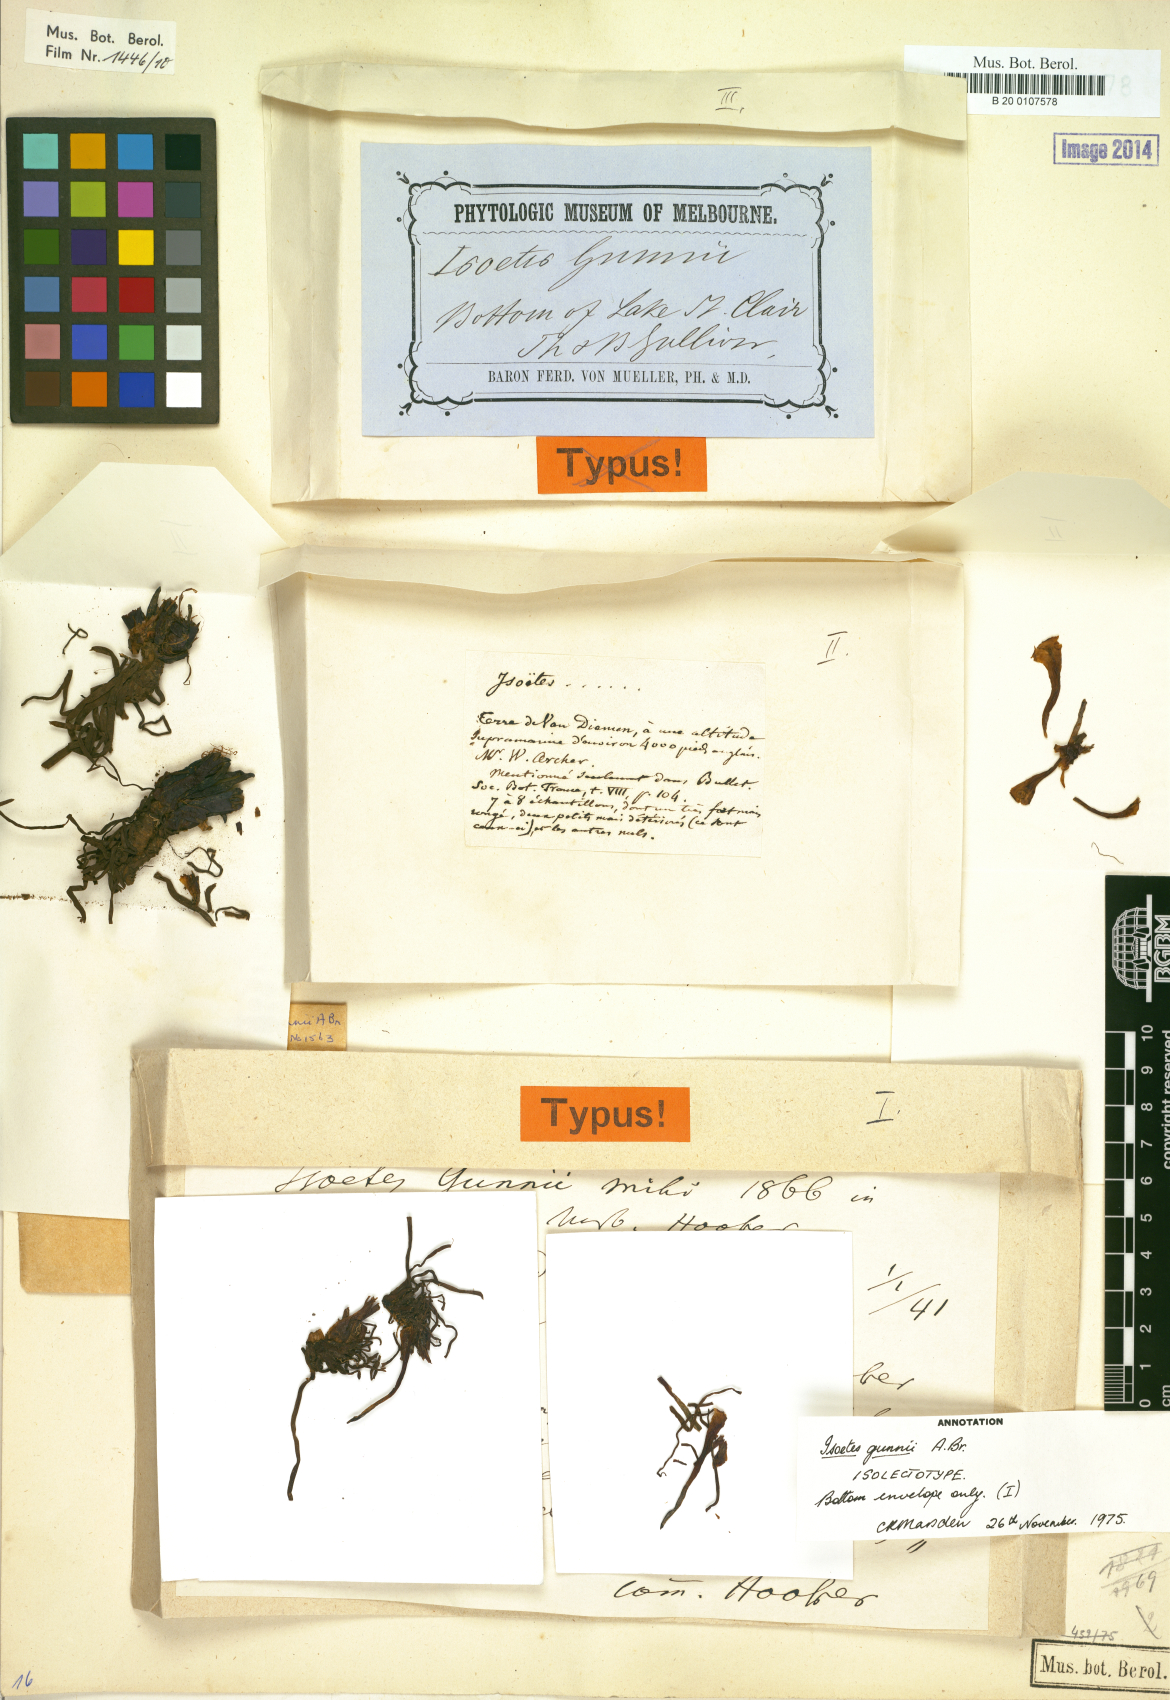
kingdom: Plantae
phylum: Tracheophyta
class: Lycopodiopsida
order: Isoetales
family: Isoetaceae
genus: Isoetes
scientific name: Isoetes gunnii
